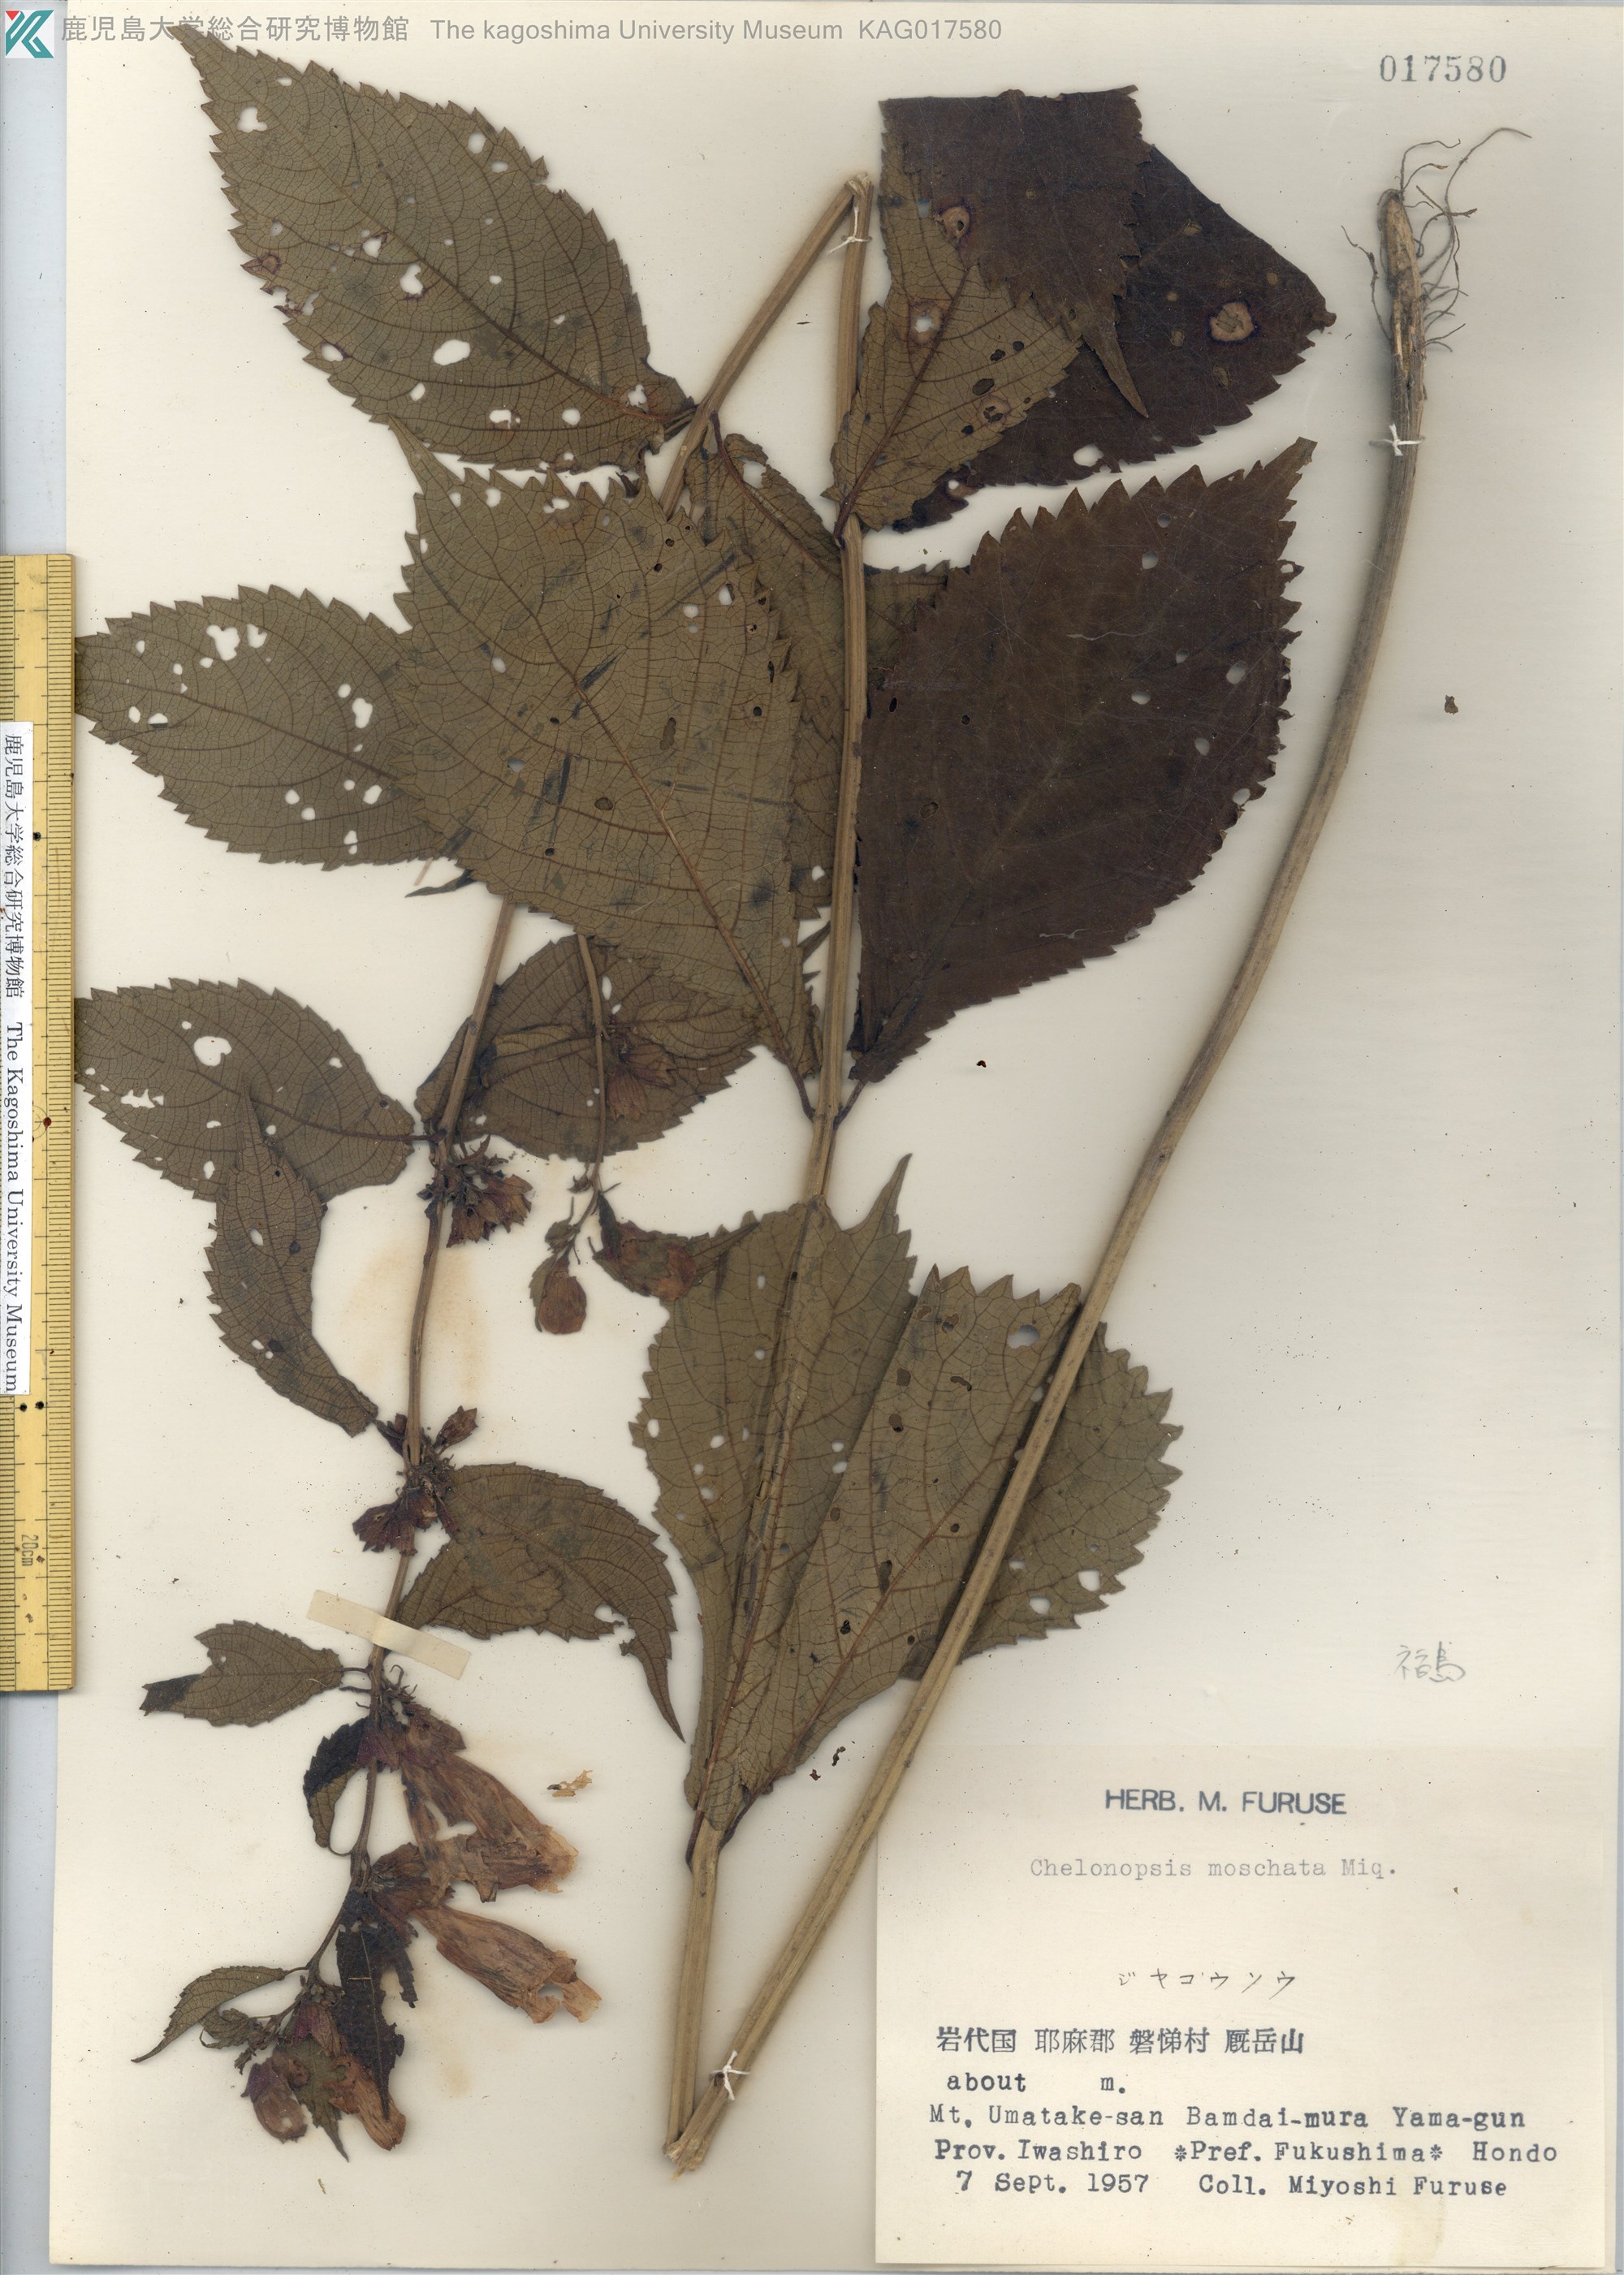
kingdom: Plantae
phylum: Tracheophyta
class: Magnoliopsida
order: Lamiales
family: Lamiaceae
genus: Chelonopsis
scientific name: Chelonopsis moschata
